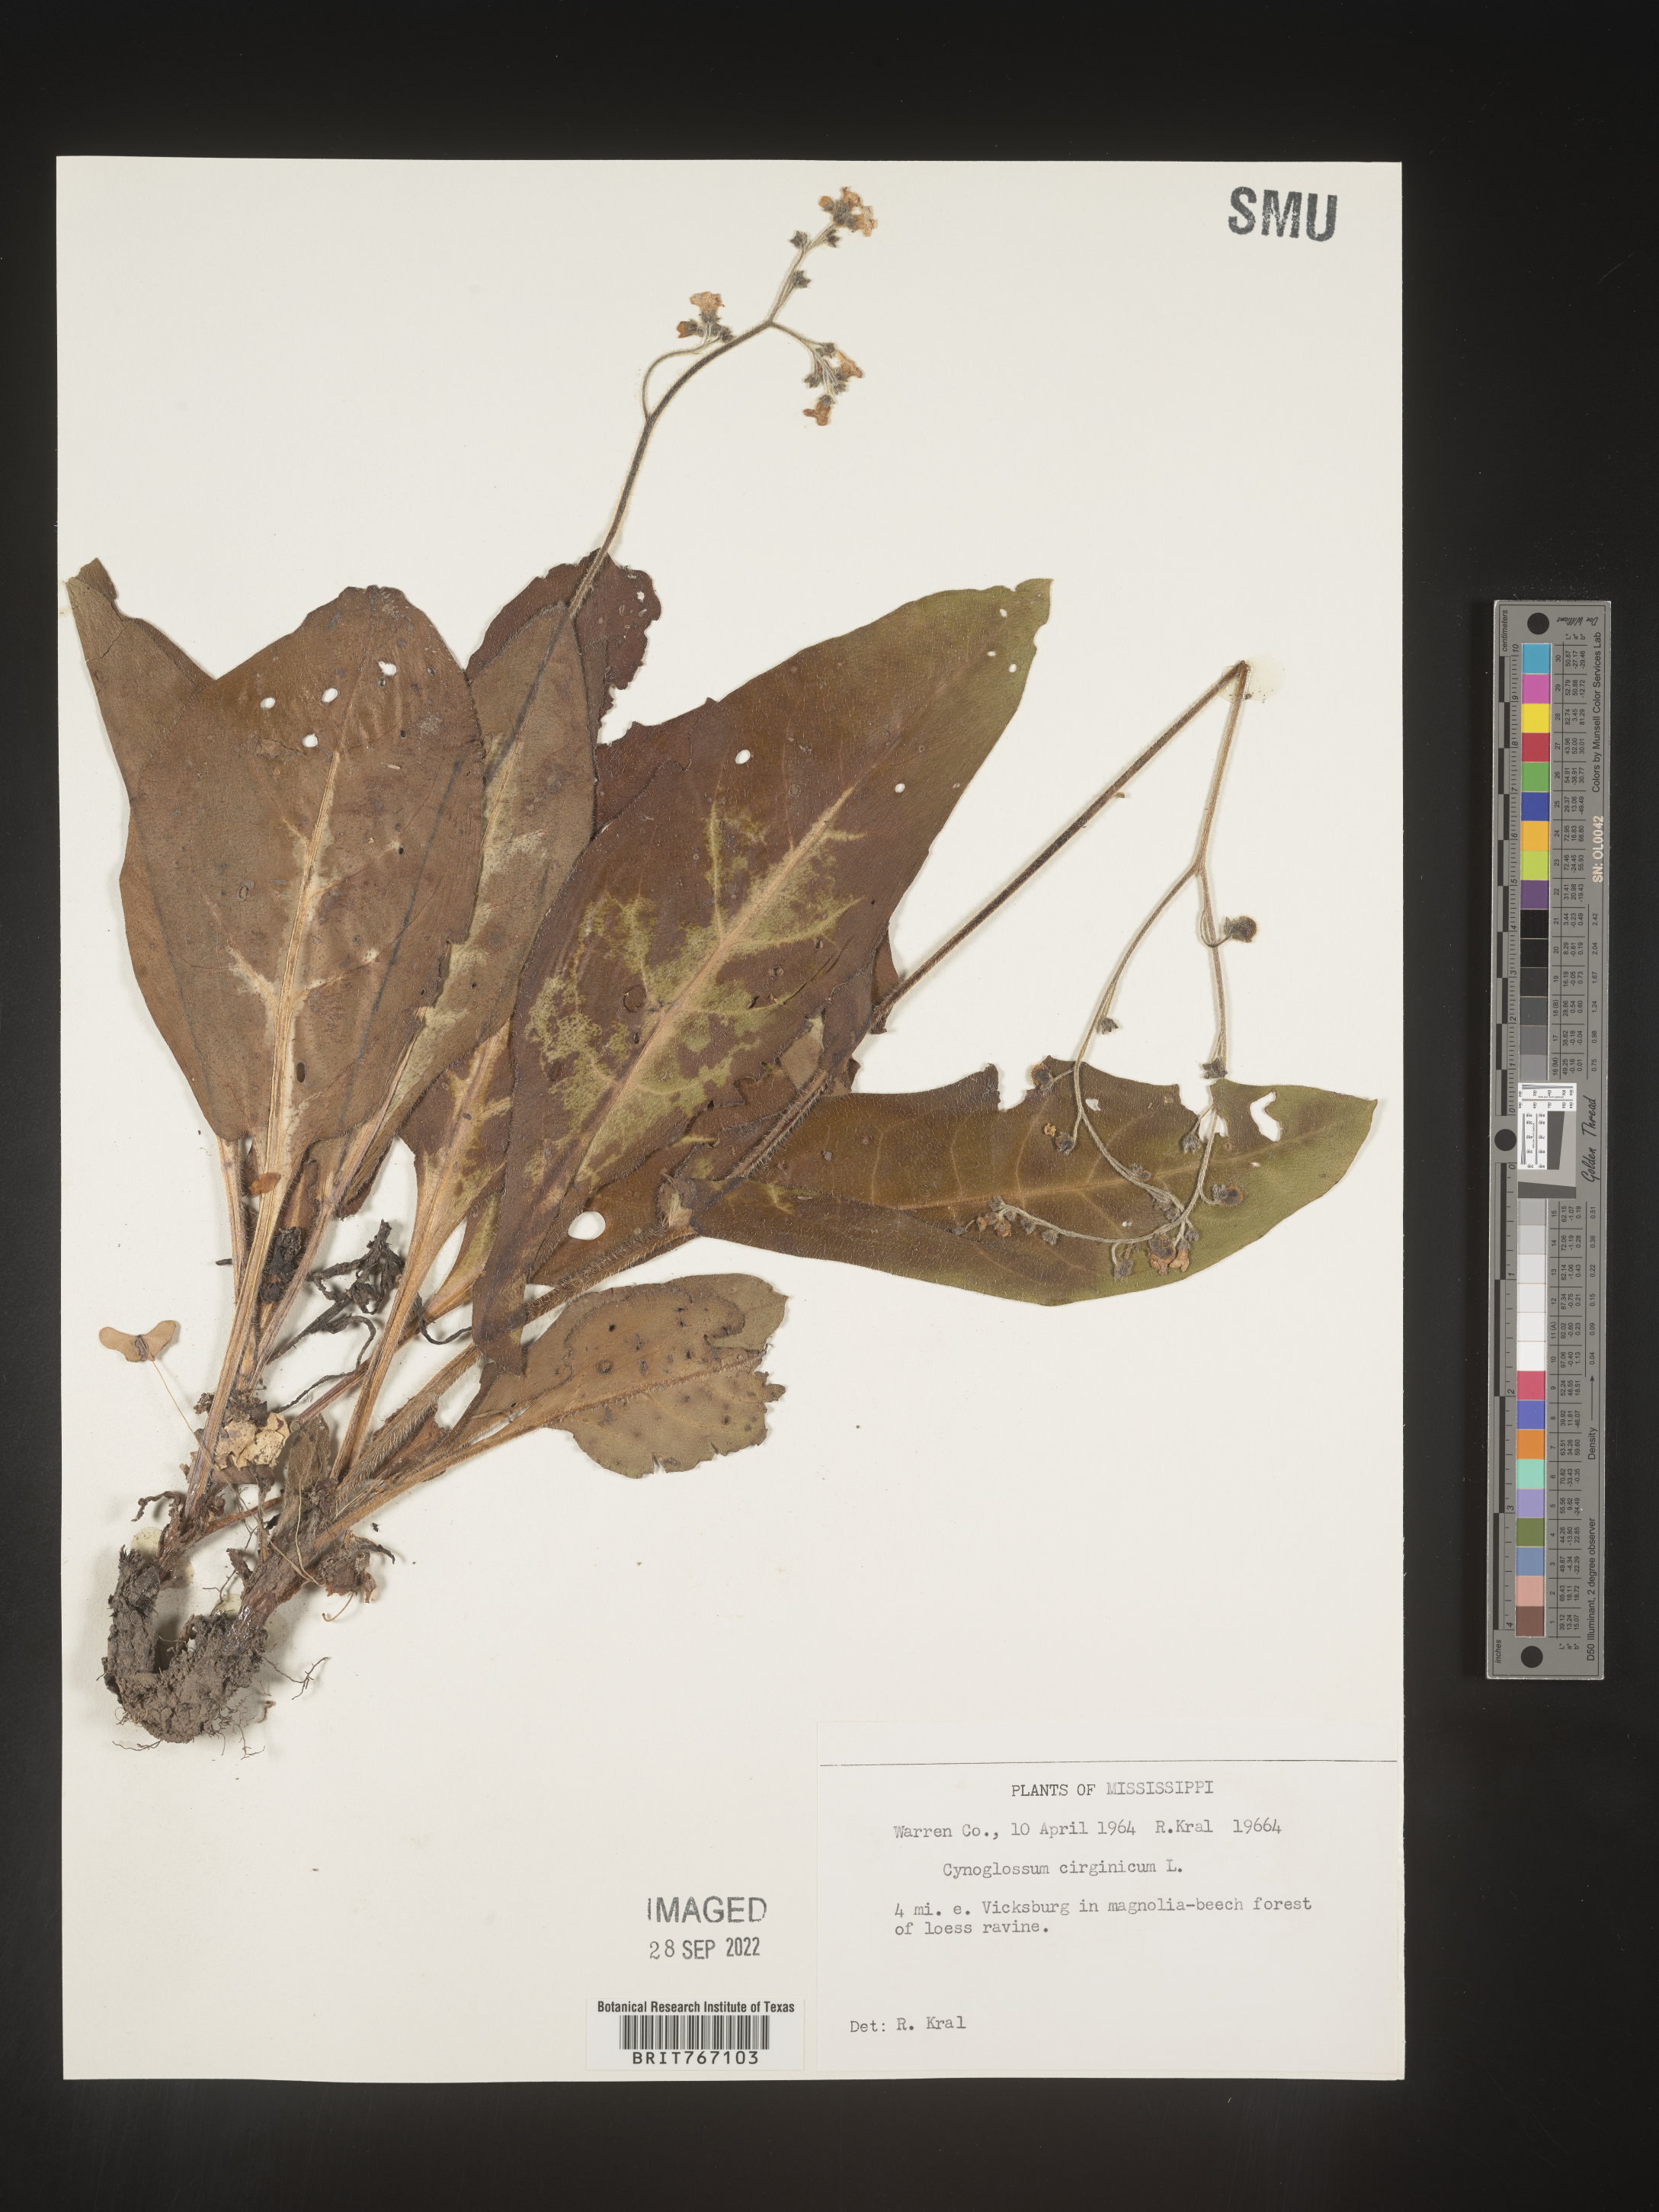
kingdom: Plantae
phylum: Tracheophyta
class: Magnoliopsida
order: Boraginales
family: Boraginaceae
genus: Andersonglossum
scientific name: Andersonglossum virginianum
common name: Wild comfrey
